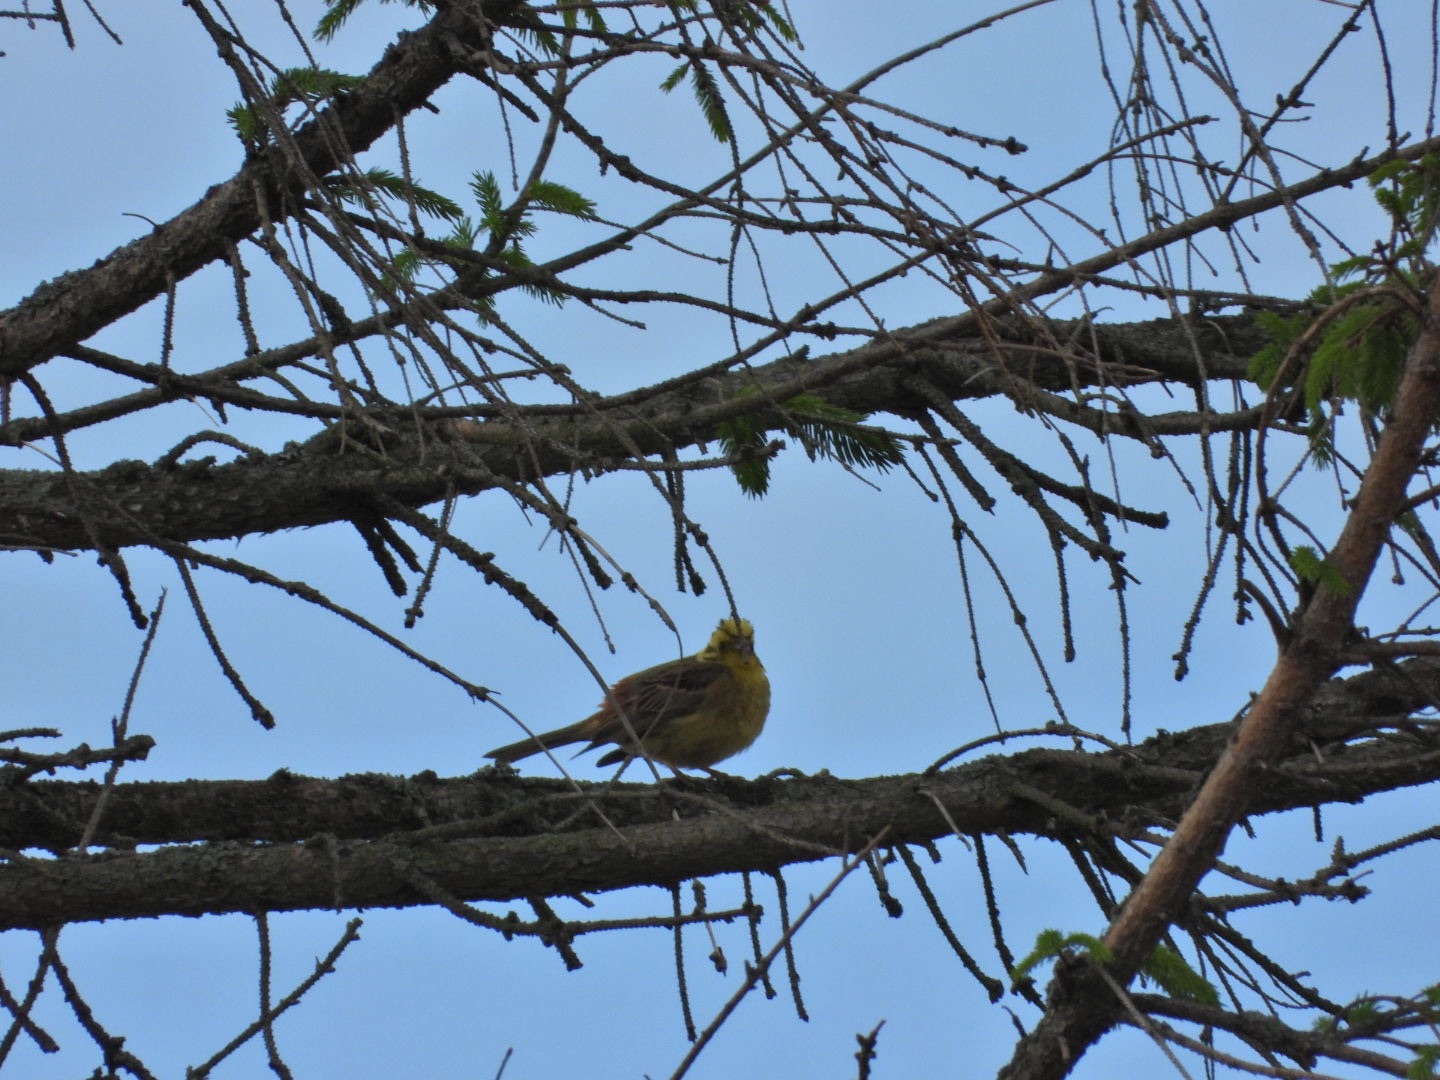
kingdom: Animalia
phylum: Chordata
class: Aves
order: Passeriformes
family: Emberizidae
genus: Emberiza
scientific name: Emberiza citrinella
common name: Gulspurv
